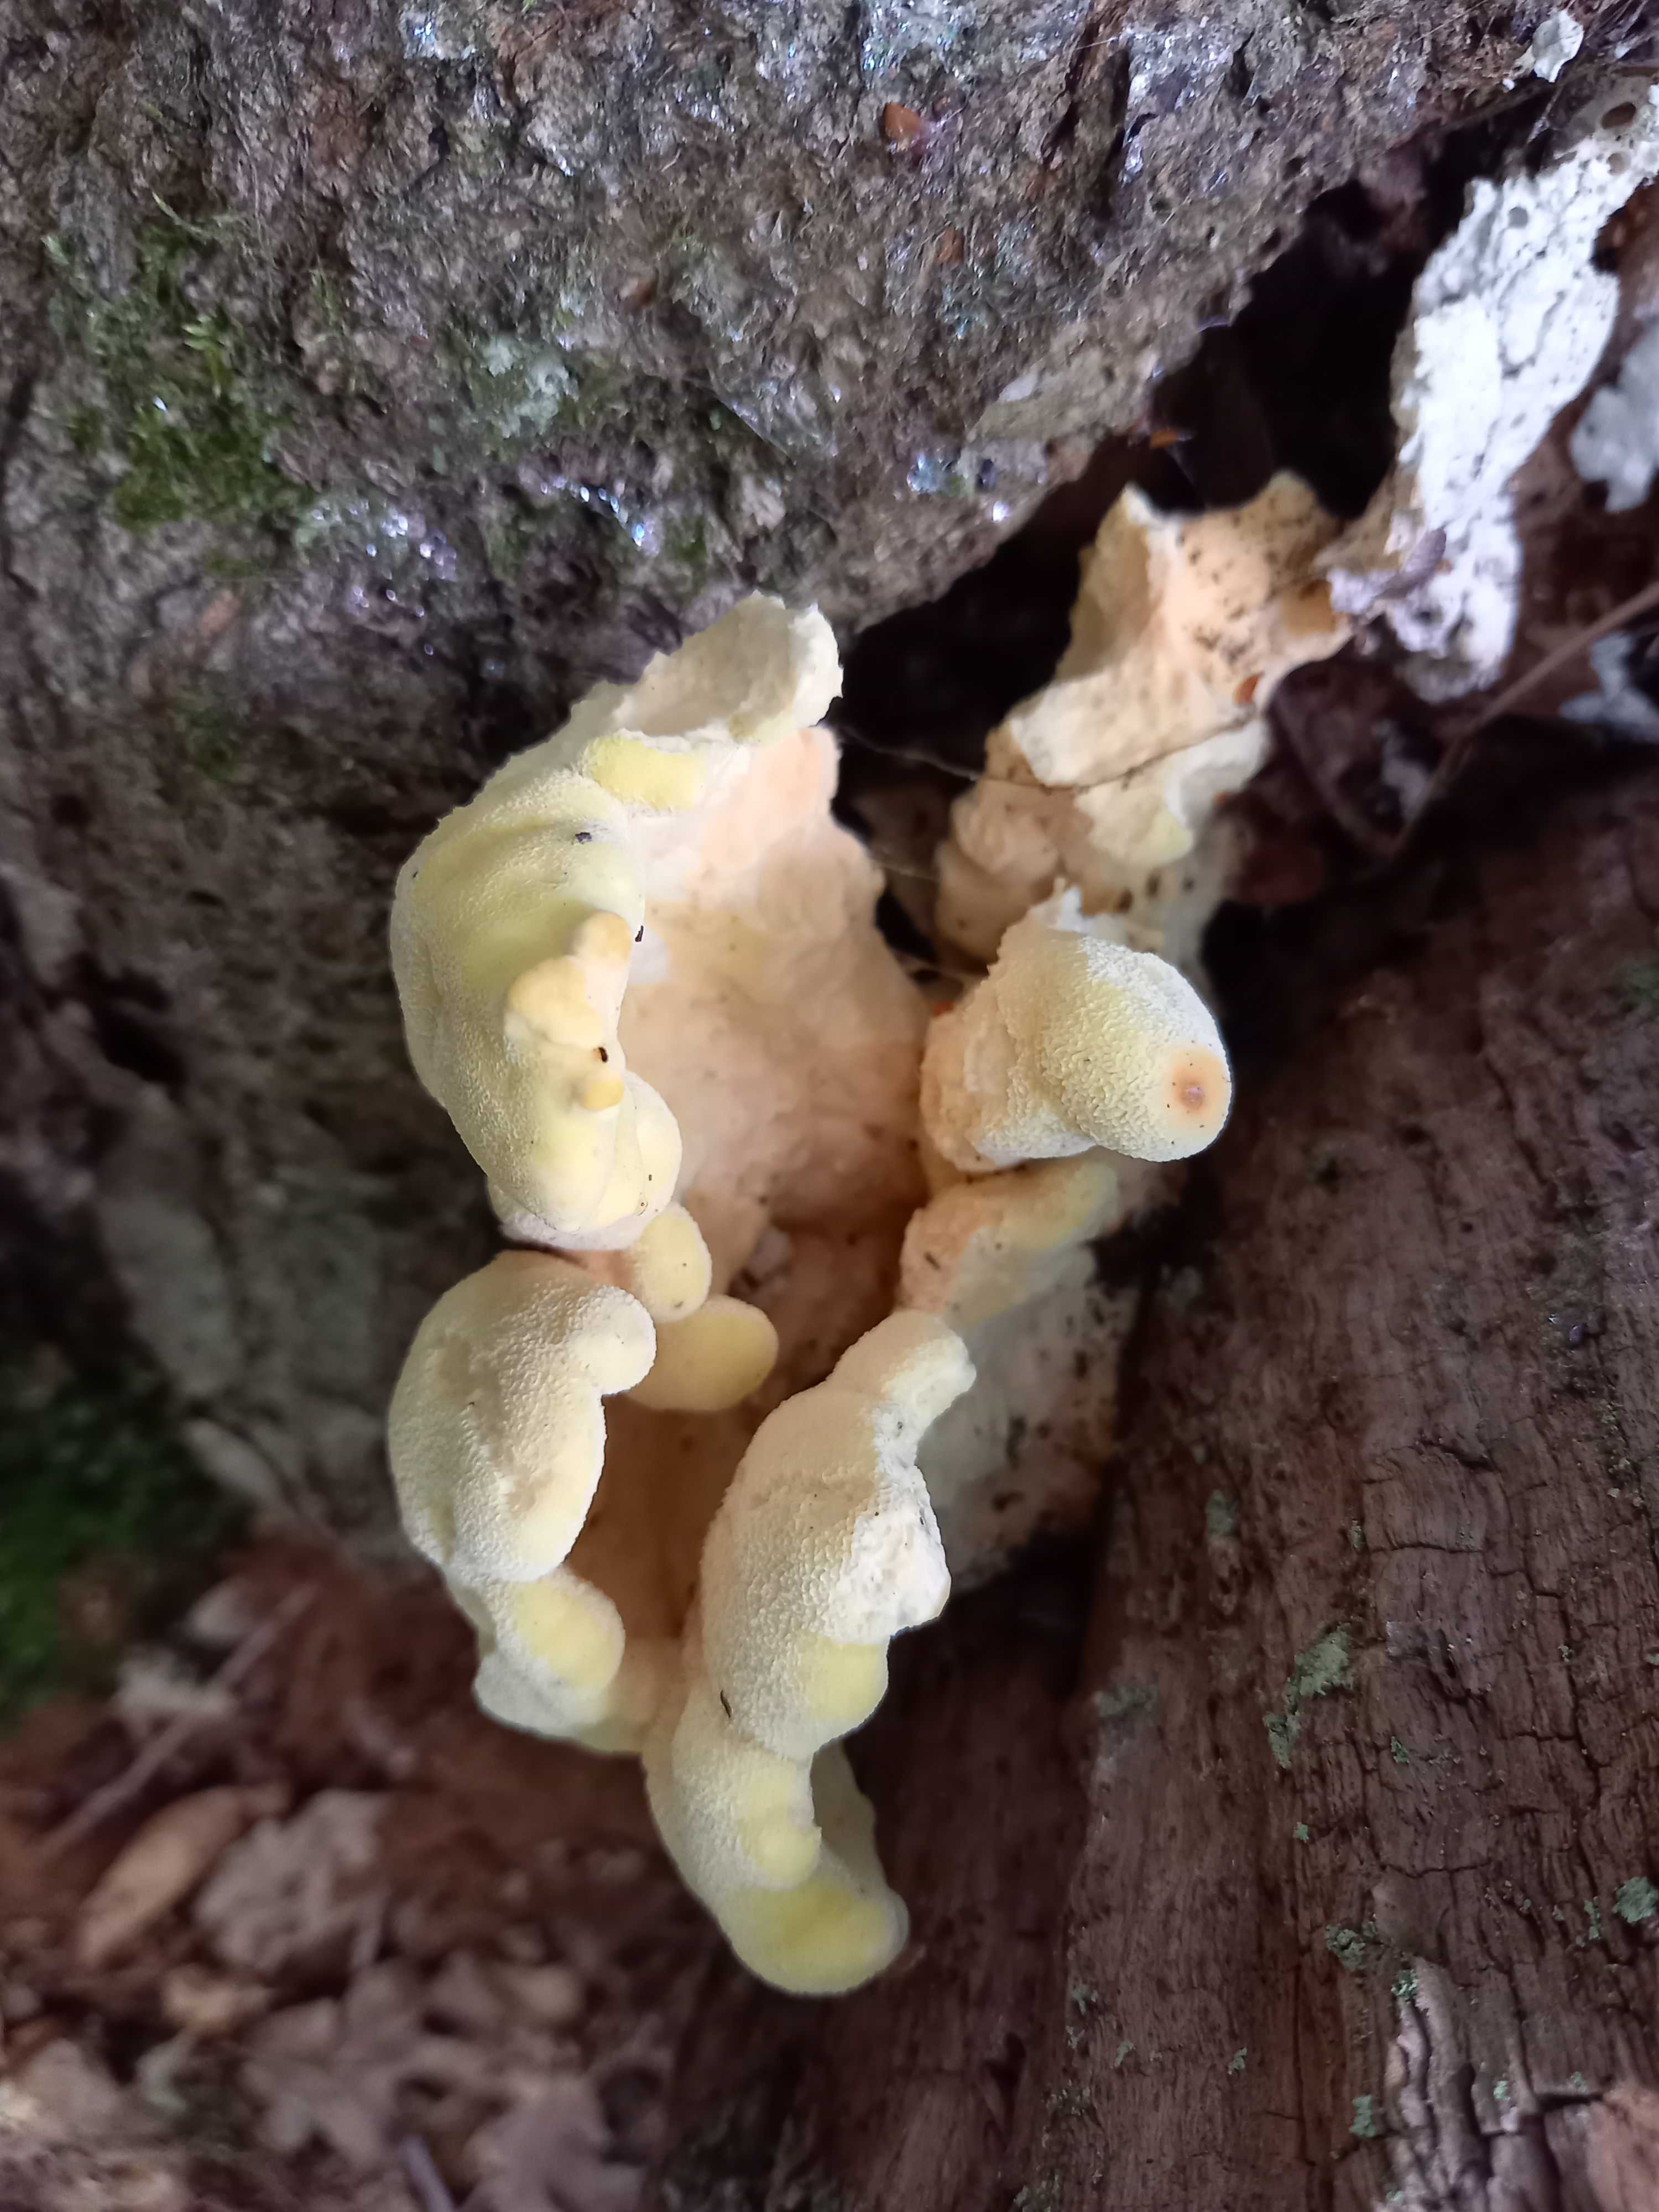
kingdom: Fungi
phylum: Basidiomycota
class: Agaricomycetes
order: Polyporales
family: Laetiporaceae
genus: Laetiporus
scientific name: Laetiporus sulphureus
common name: svovlporesvamp
